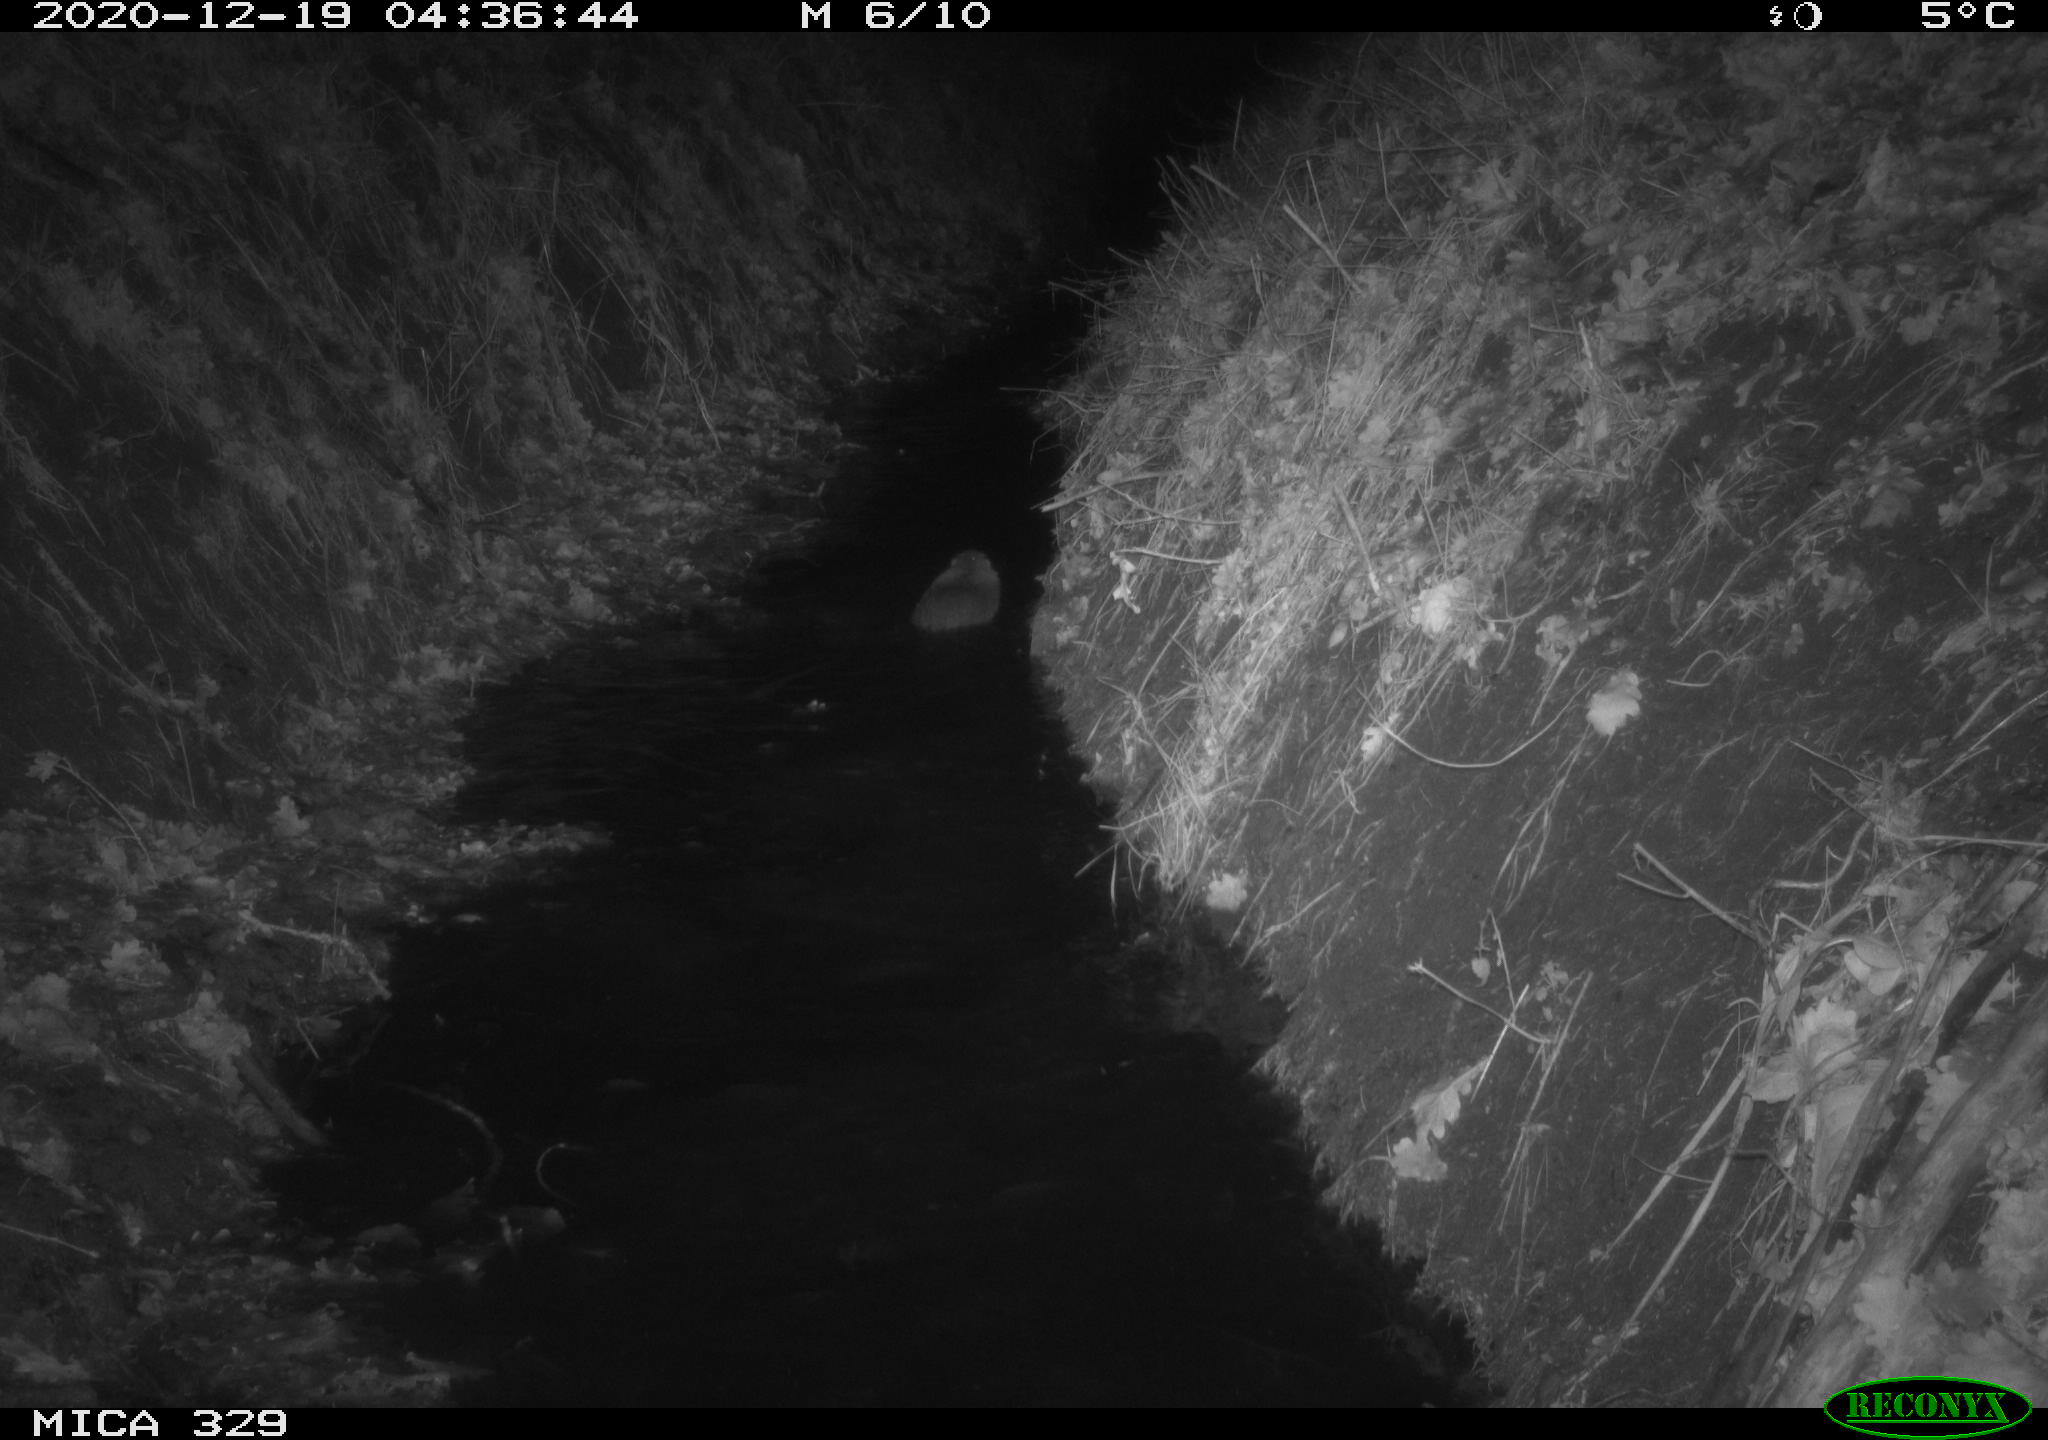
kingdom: Animalia
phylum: Chordata
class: Mammalia
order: Rodentia
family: Cricetidae
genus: Ondatra
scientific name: Ondatra zibethicus
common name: Muskrat
